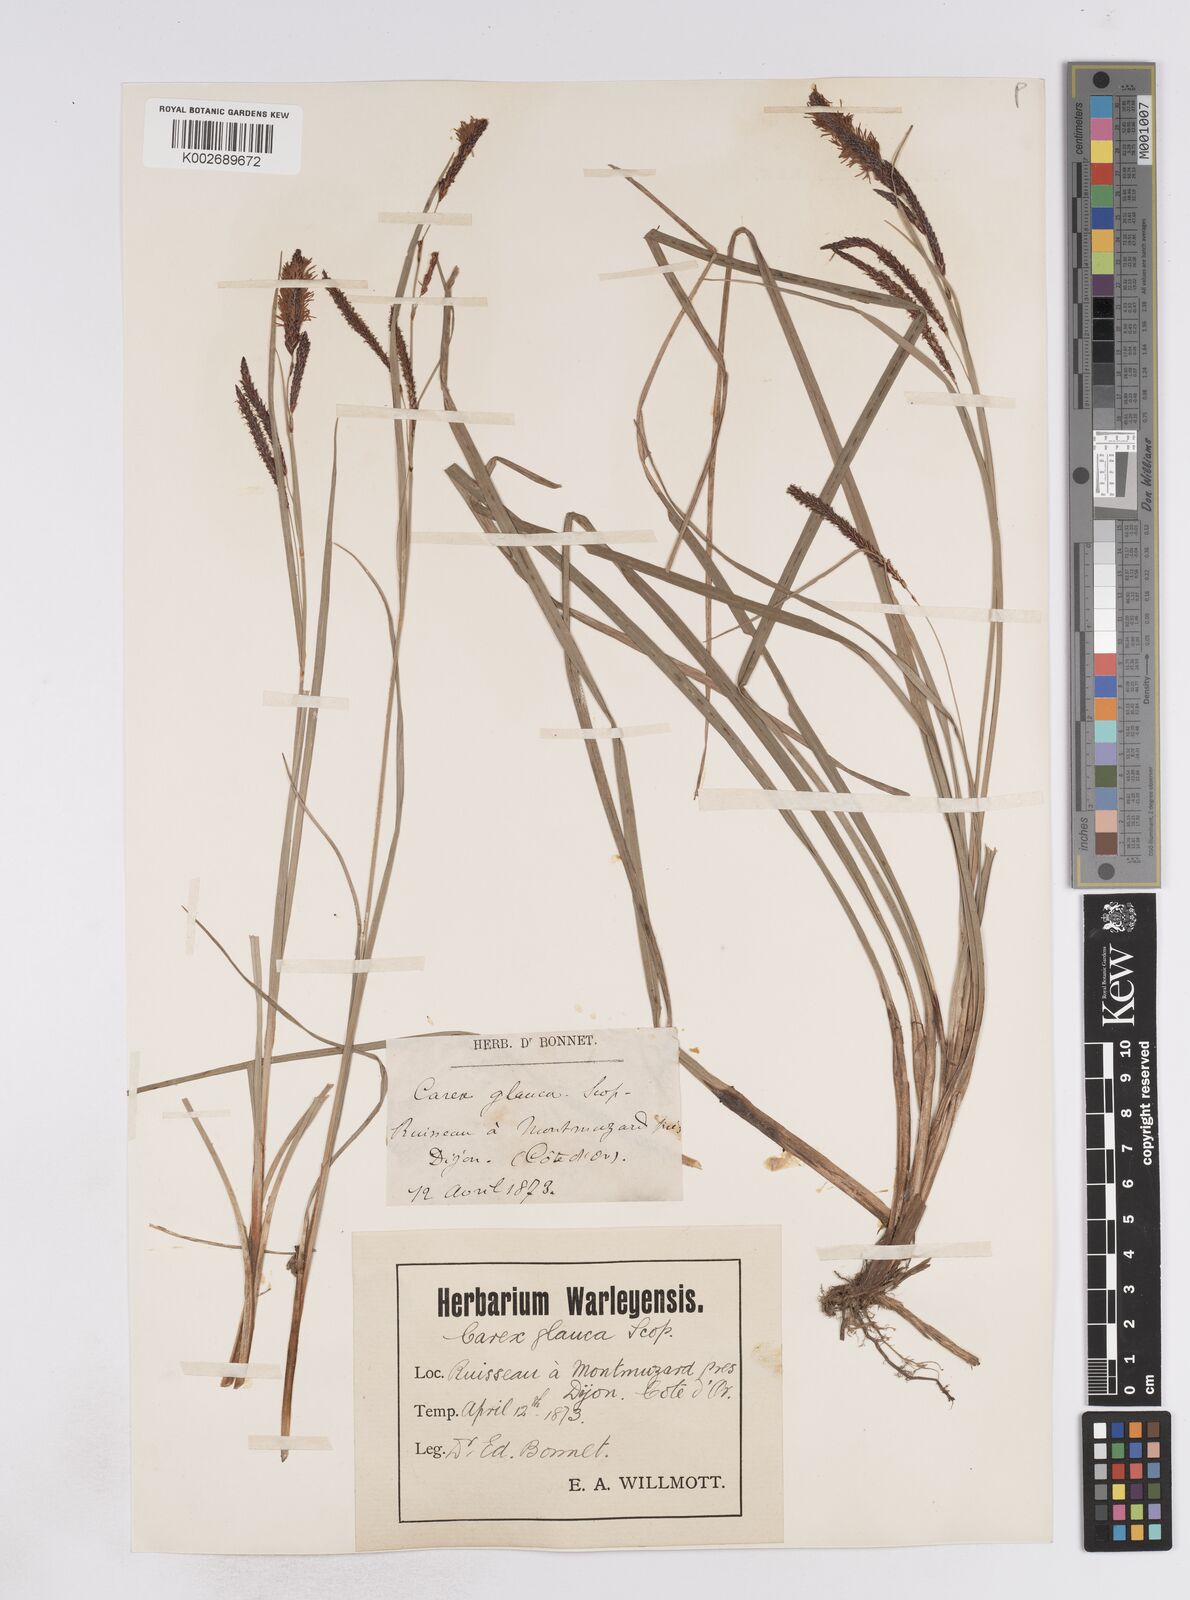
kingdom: Plantae
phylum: Tracheophyta
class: Liliopsida
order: Poales
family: Cyperaceae
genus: Carex
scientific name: Carex flacca
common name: Glaucous sedge
